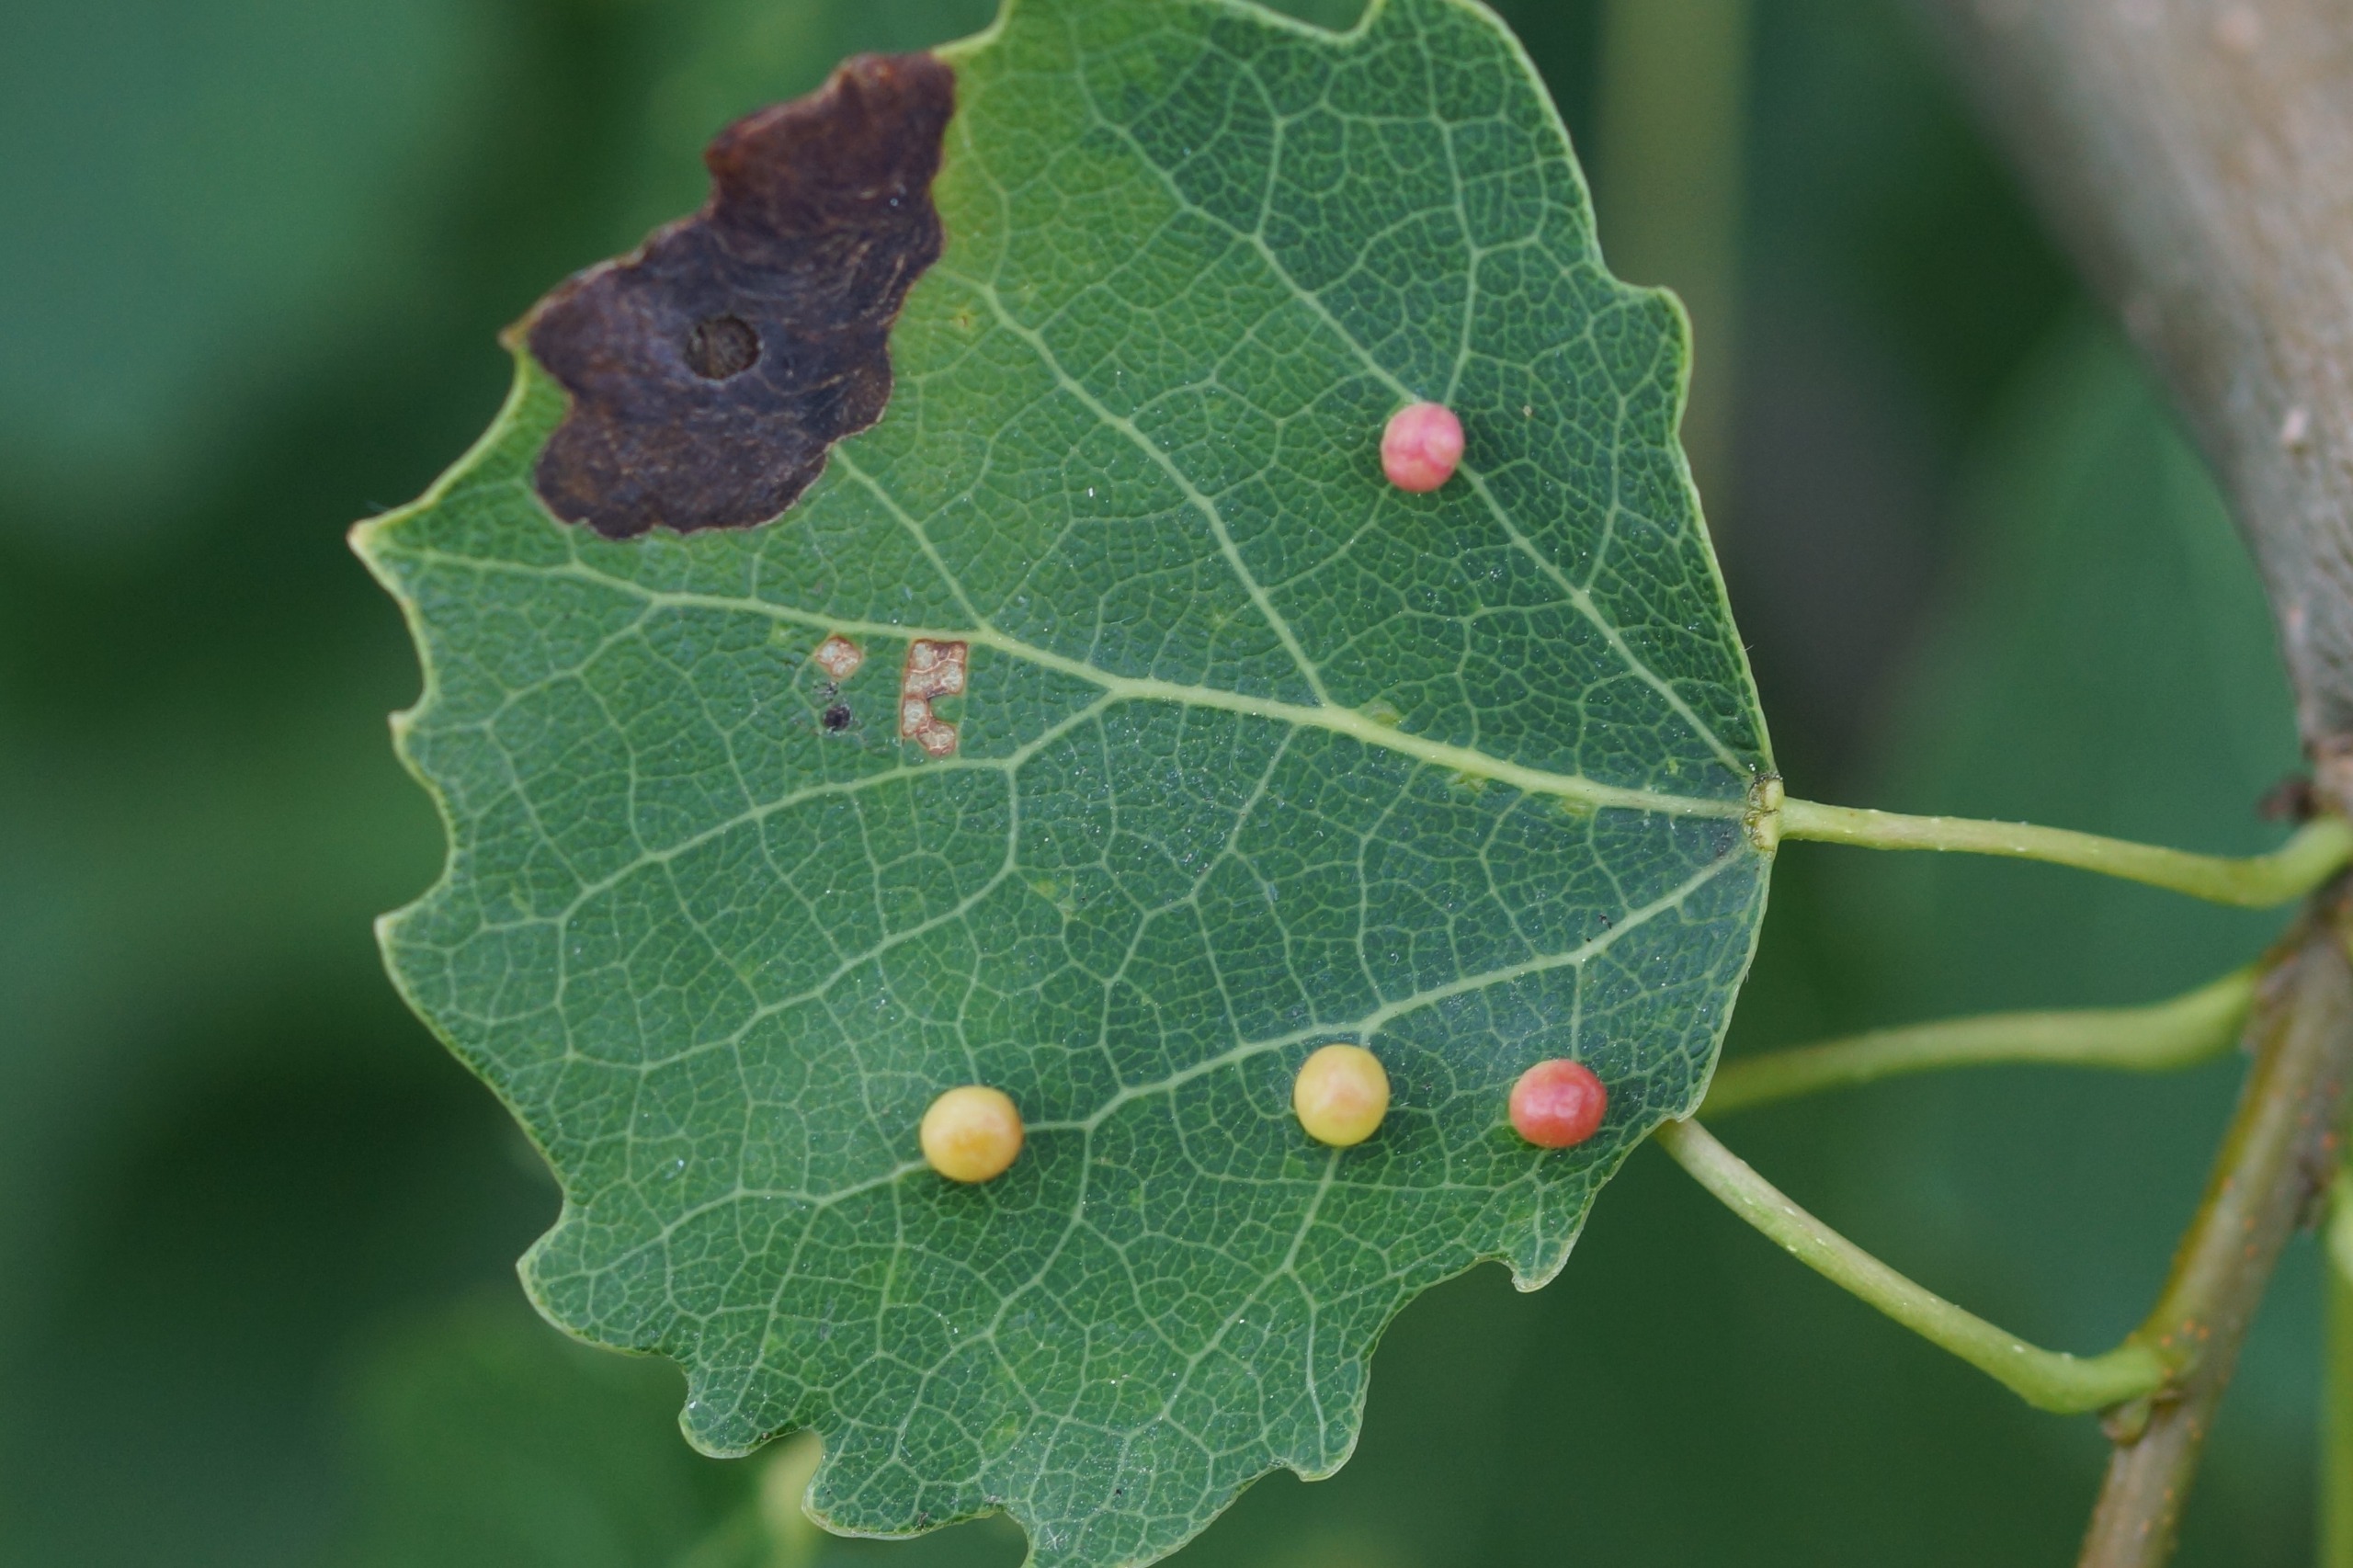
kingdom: Animalia
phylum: Arthropoda
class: Insecta
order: Diptera
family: Cecidomyiidae
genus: Harmandiola
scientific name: Harmandiola globuli
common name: Aspekravegalmyg
